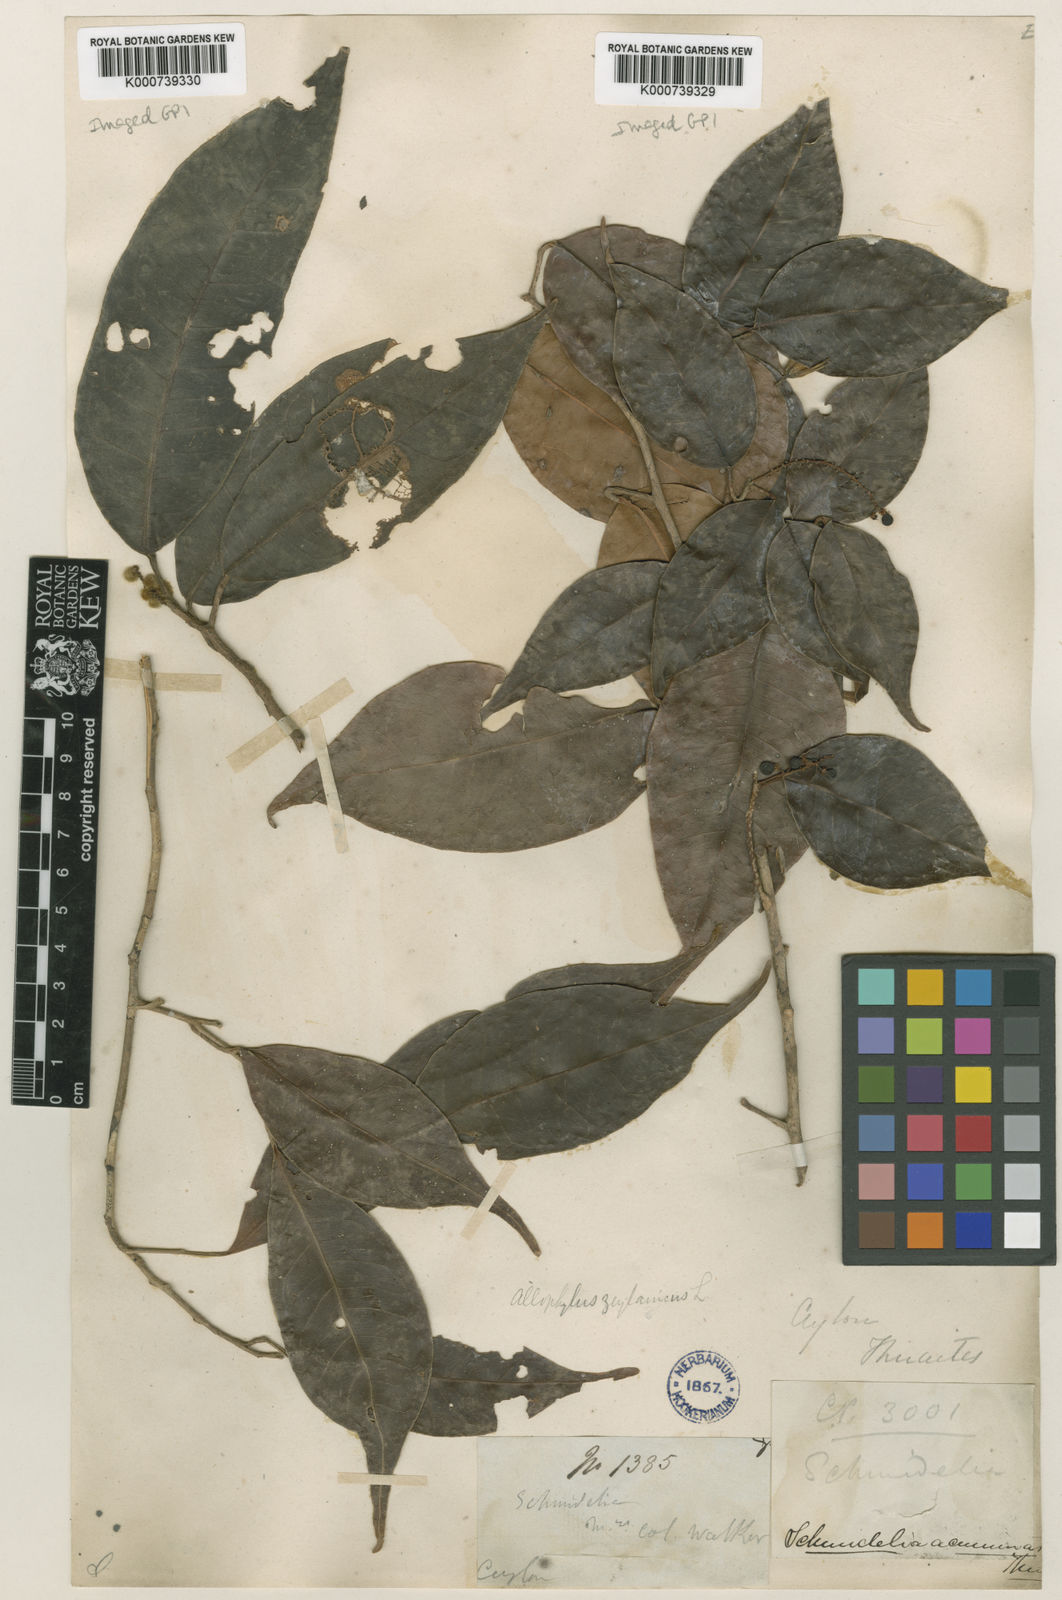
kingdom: Plantae
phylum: Tracheophyta
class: Magnoliopsida
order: Sapindales
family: Sapindaceae
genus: Allophylus
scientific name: Allophylus zeylanicus
